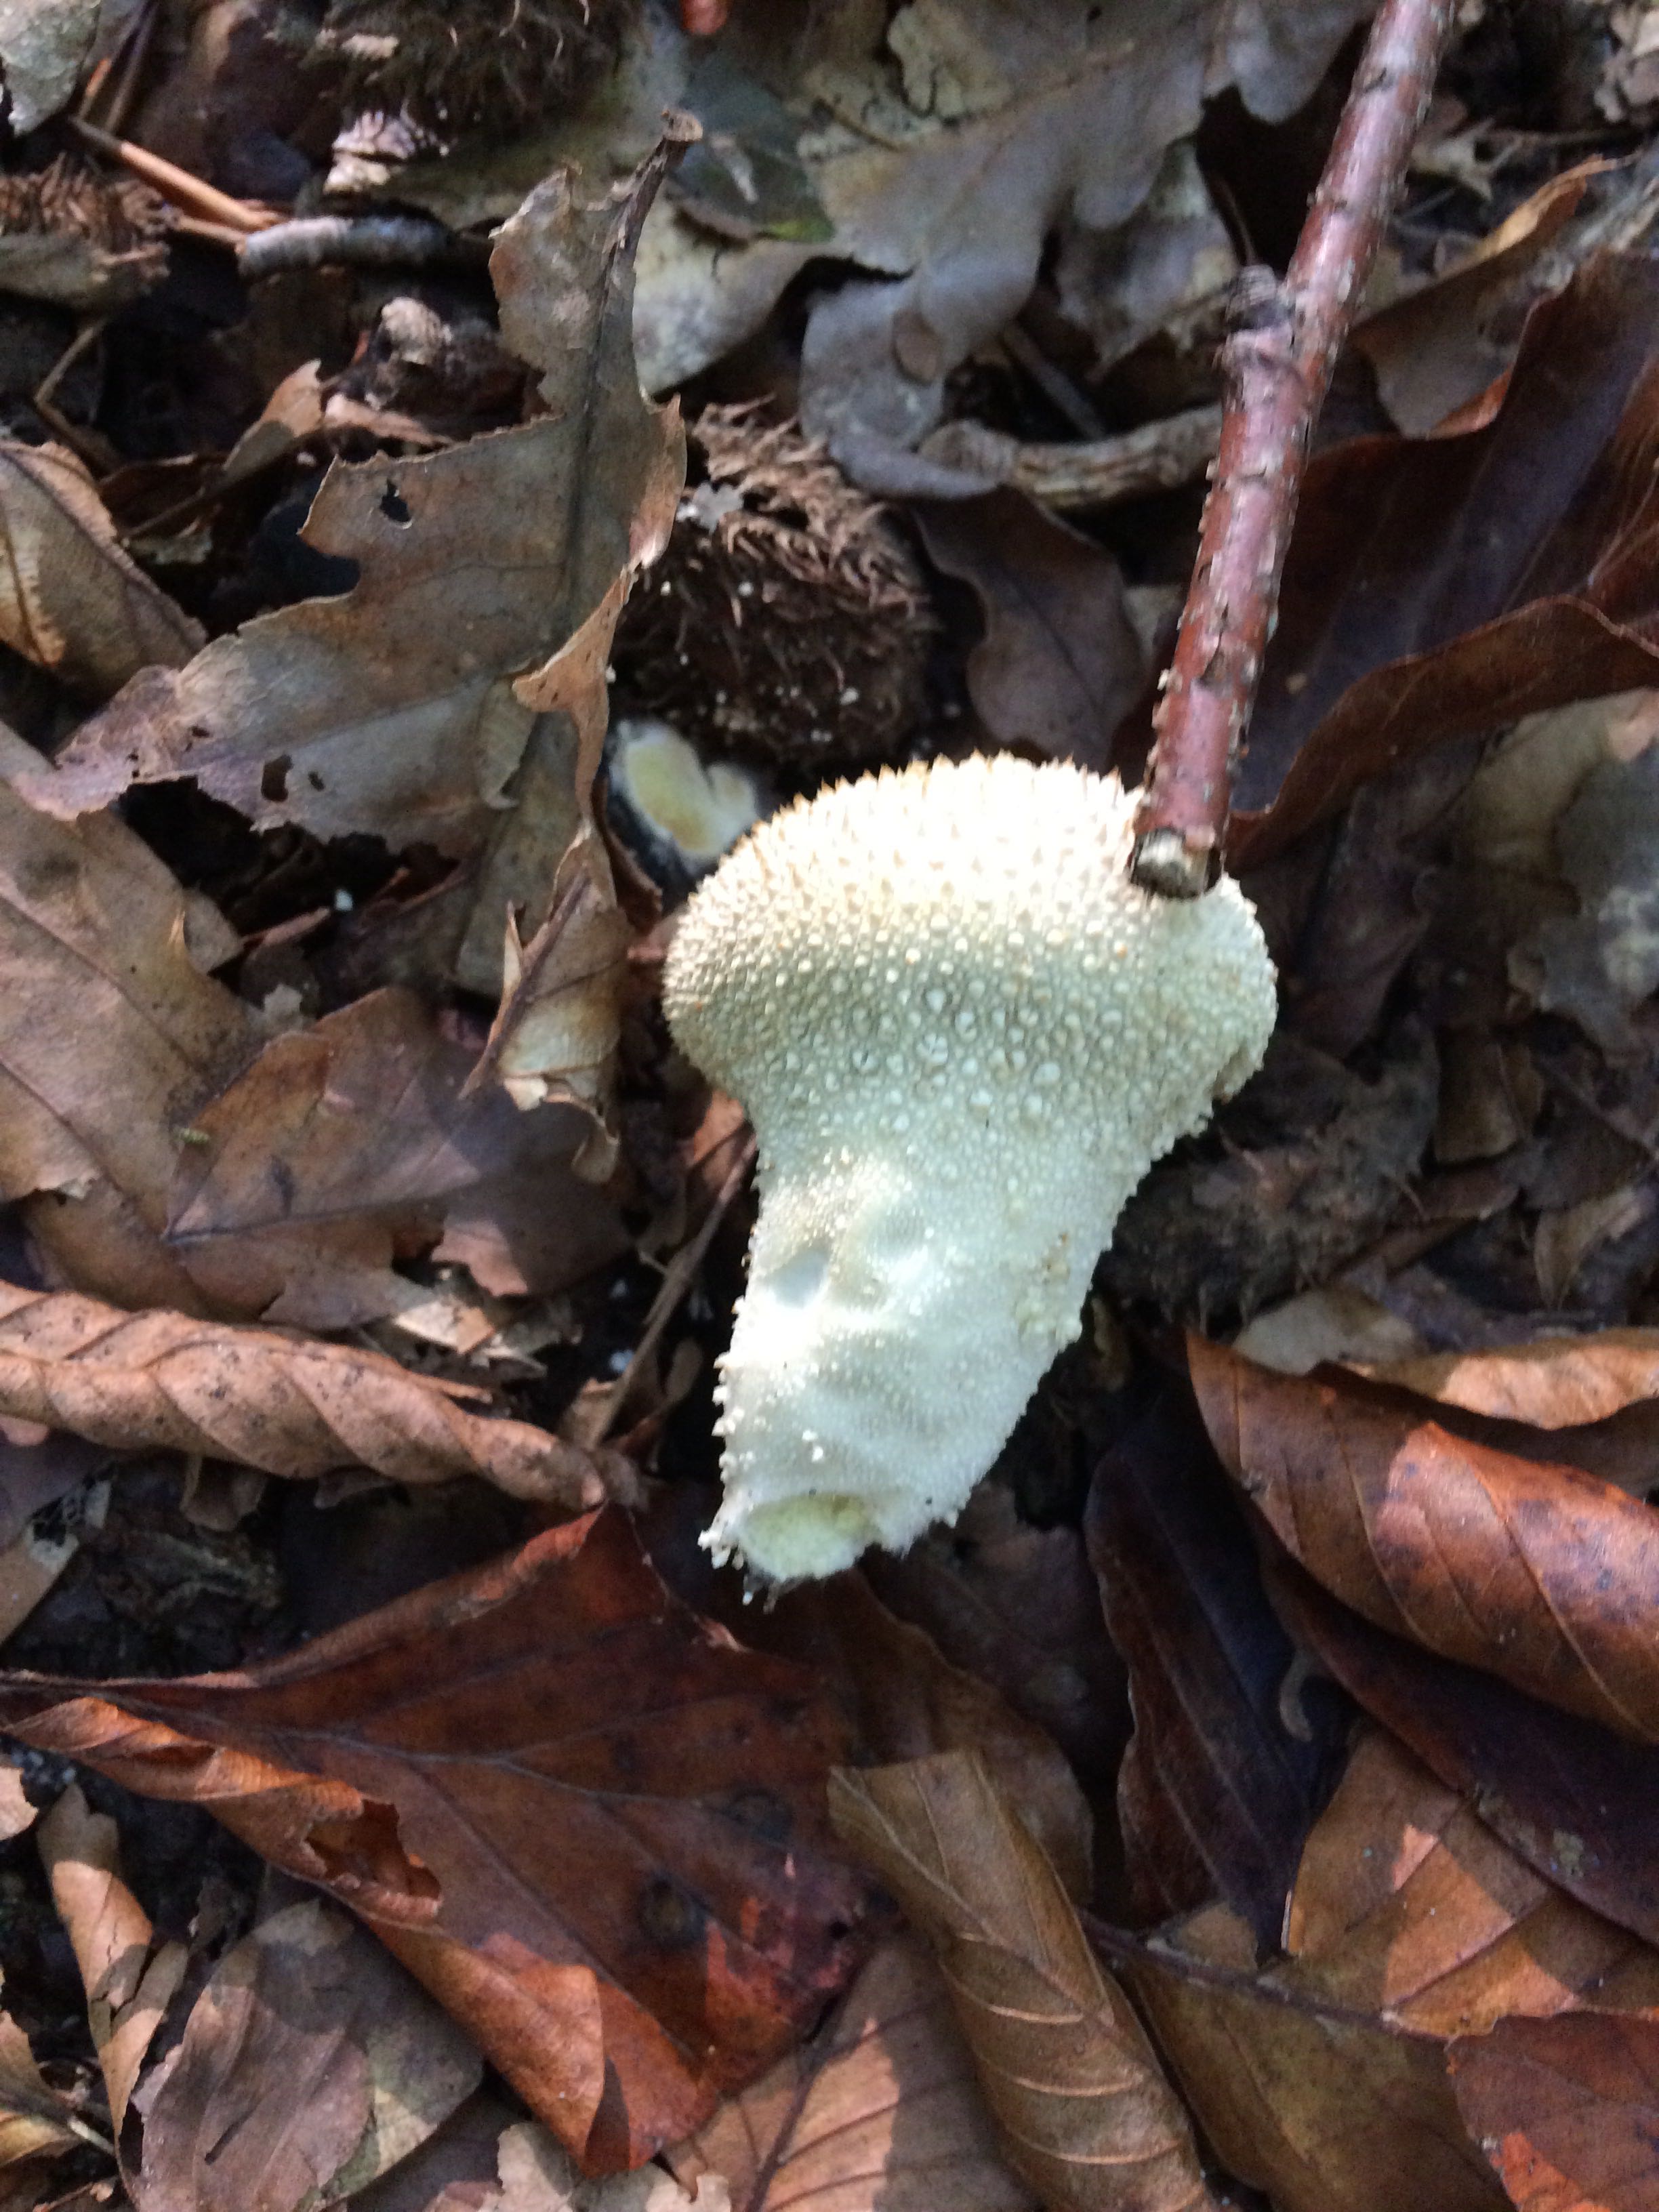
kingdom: Fungi
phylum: Basidiomycota
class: Agaricomycetes
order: Agaricales
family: Lycoperdaceae
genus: Lycoperdon
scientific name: Lycoperdon perlatum
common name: krystal-støvbold
